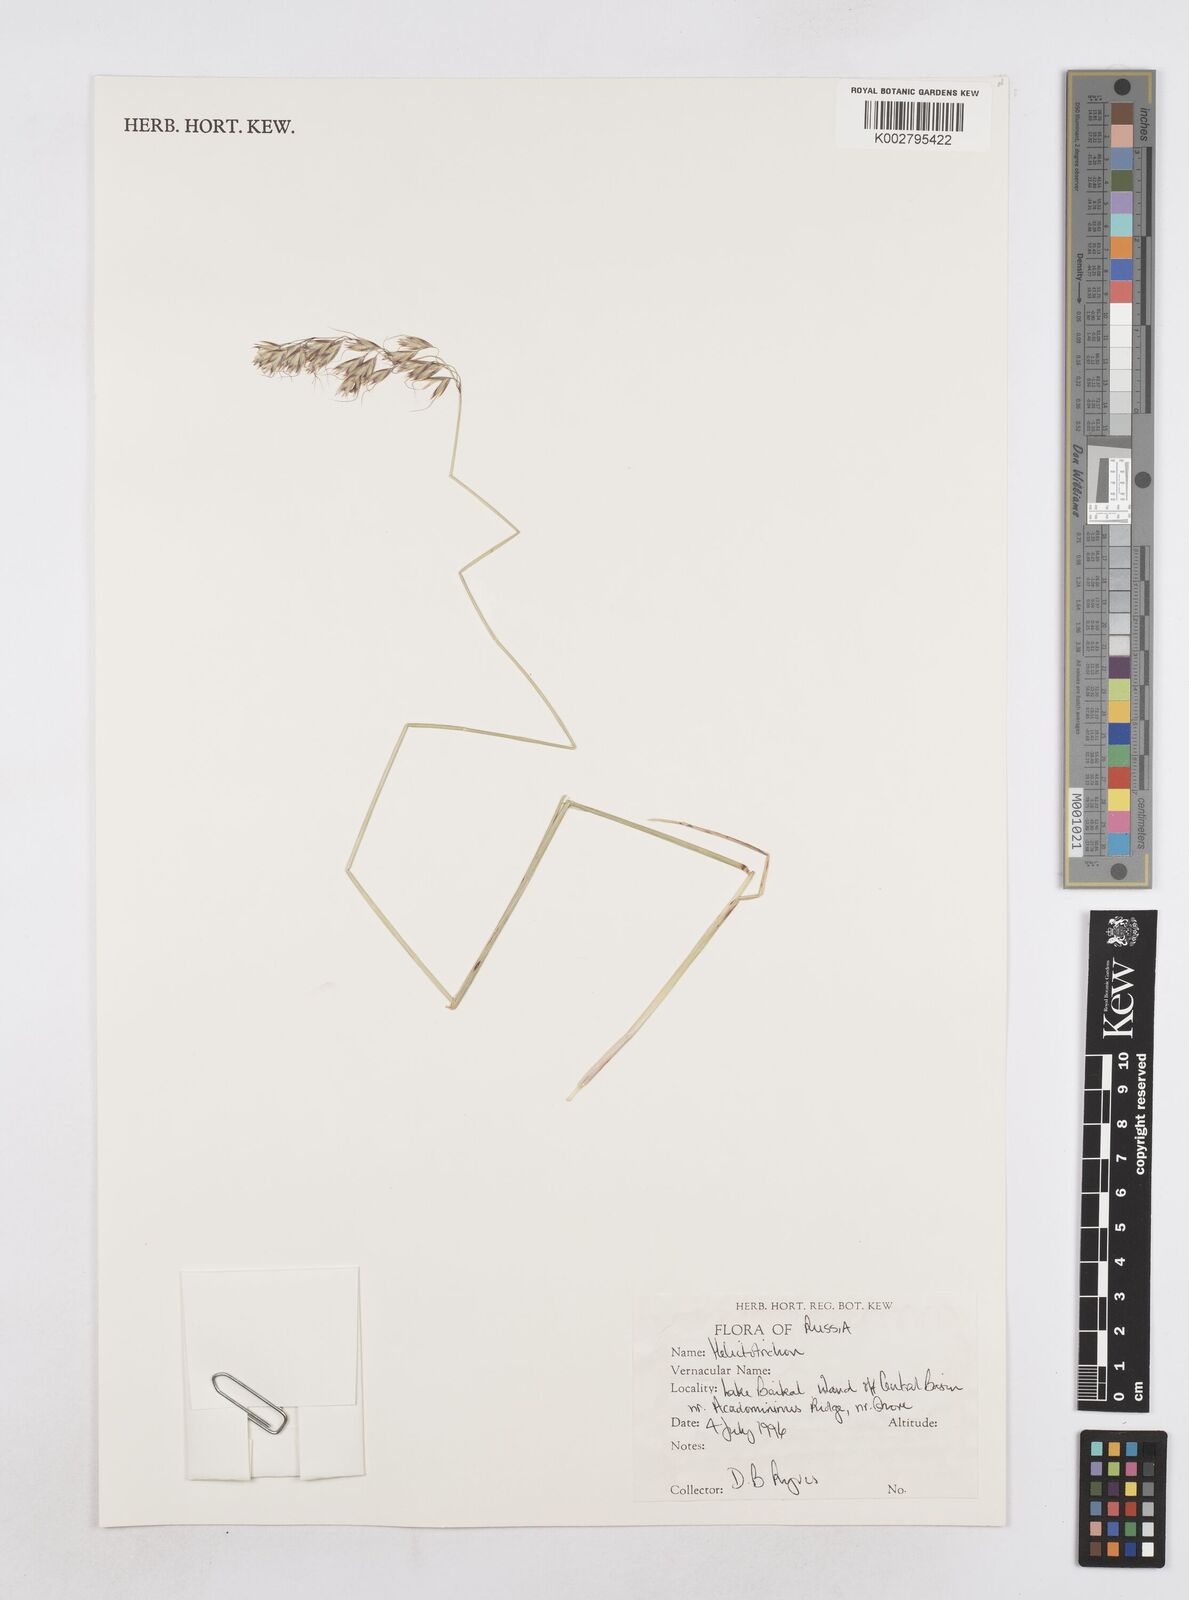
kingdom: Plantae
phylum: Tracheophyta
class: Liliopsida
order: Poales
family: Poaceae
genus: Helictotrichon
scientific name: Helictotrichon
